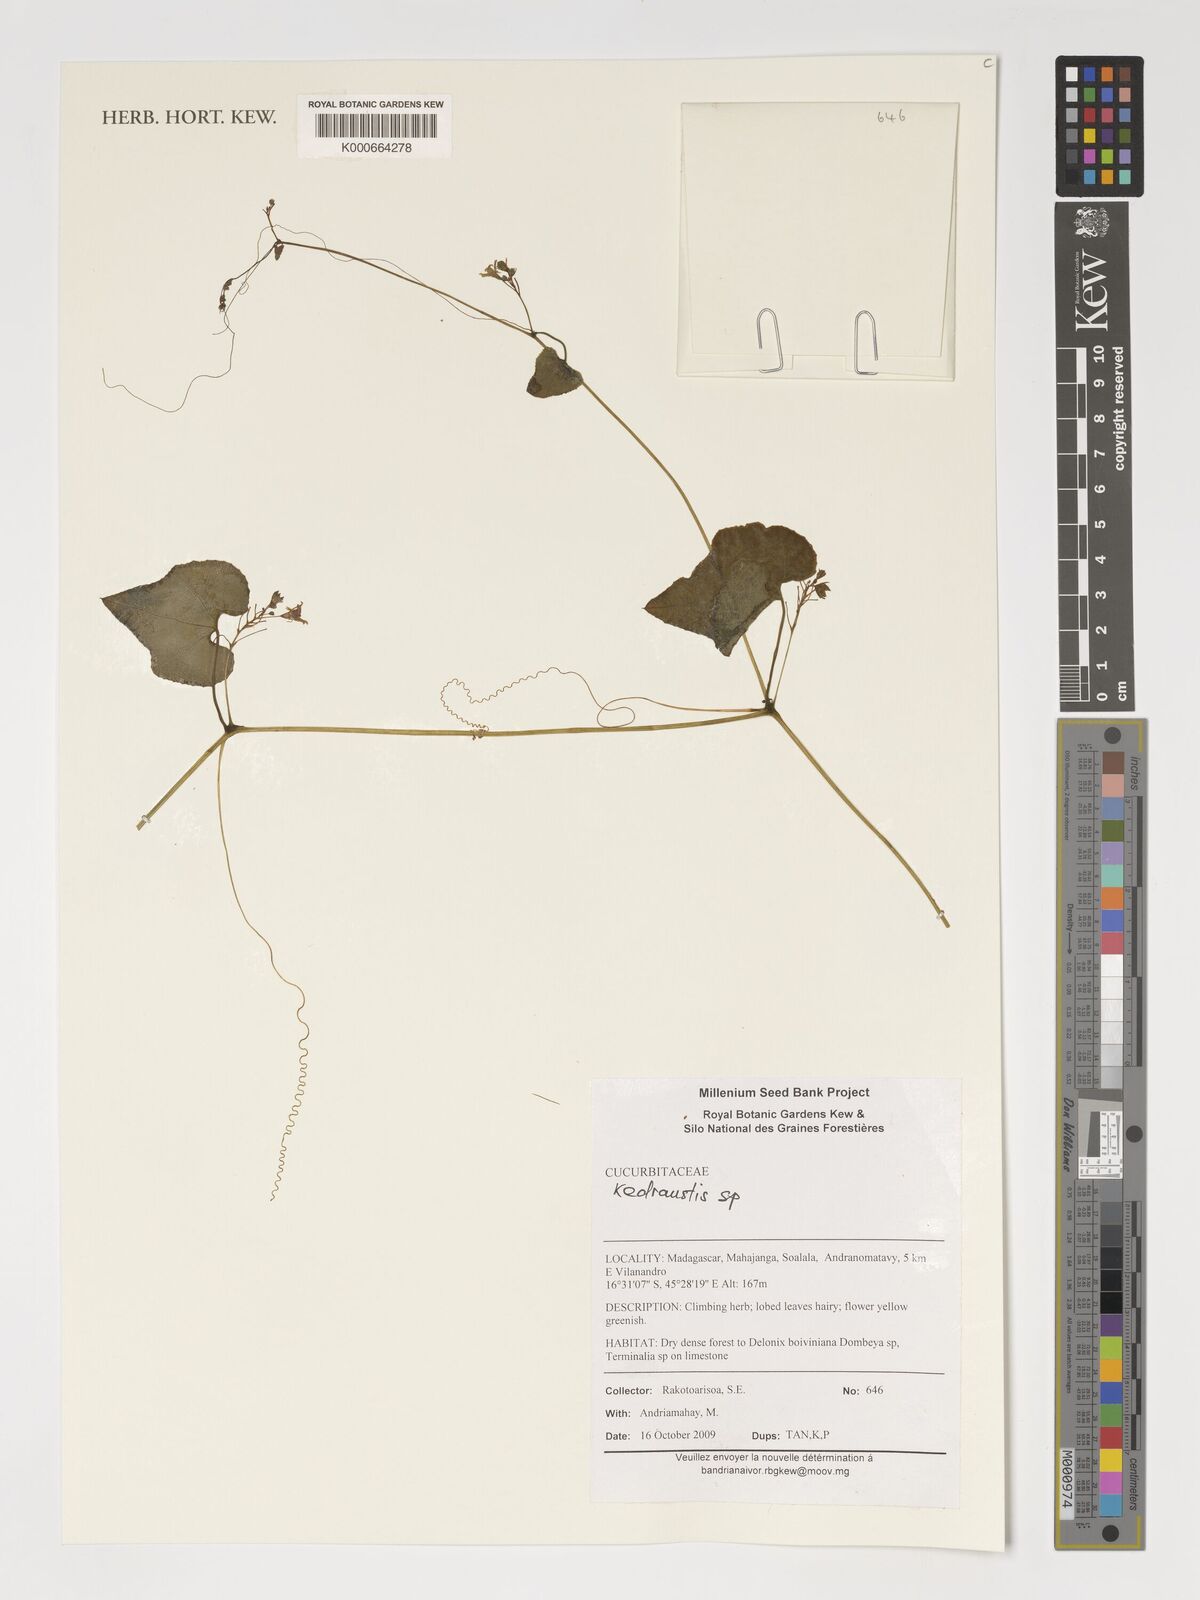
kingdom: Plantae
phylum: Tracheophyta
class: Magnoliopsida
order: Cucurbitales
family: Cucurbitaceae
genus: Kedrostis
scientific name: Kedrostis
